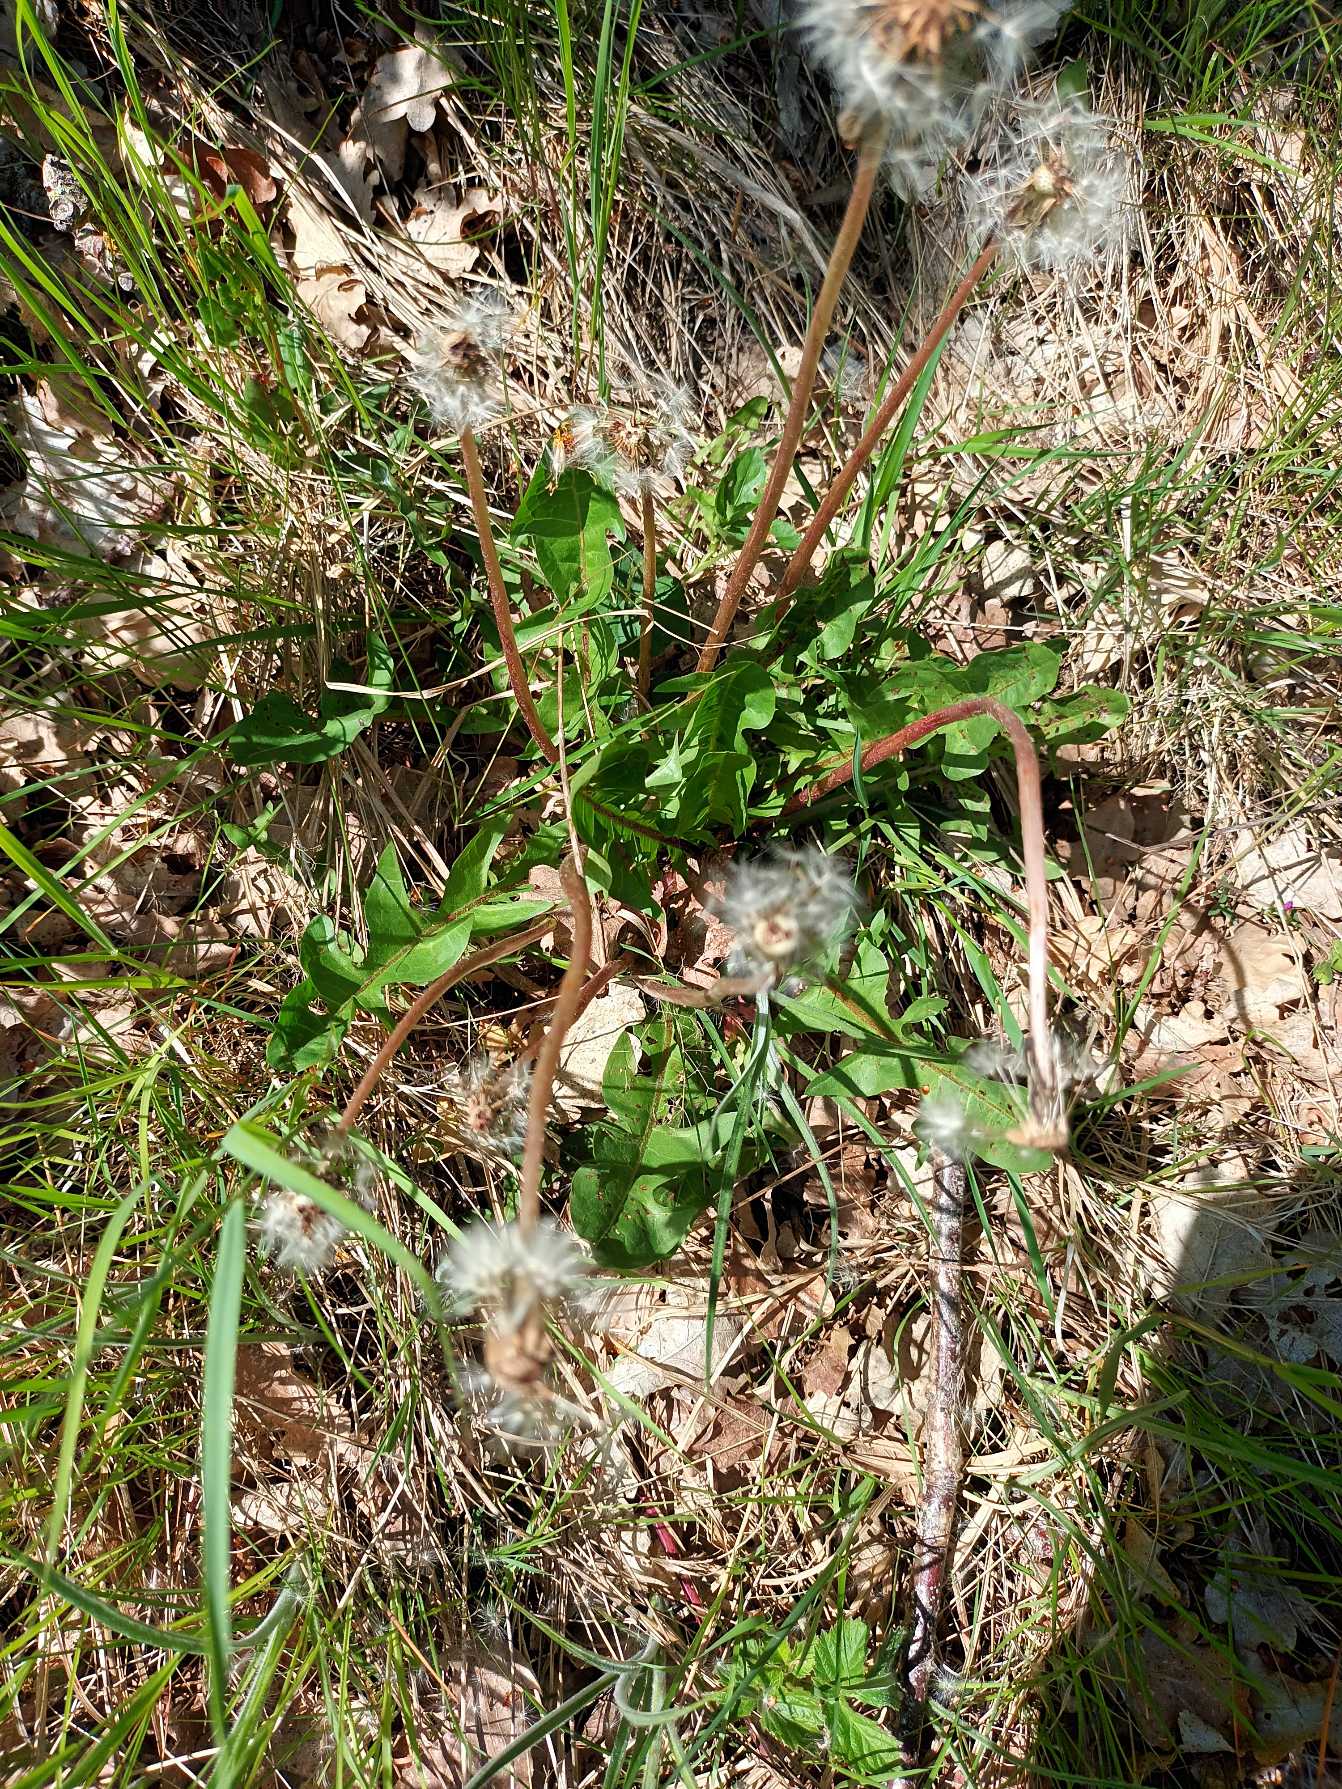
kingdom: Plantae
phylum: Tracheophyta
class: Magnoliopsida
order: Asterales
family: Asteraceae
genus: Taraxacum
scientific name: Taraxacum
